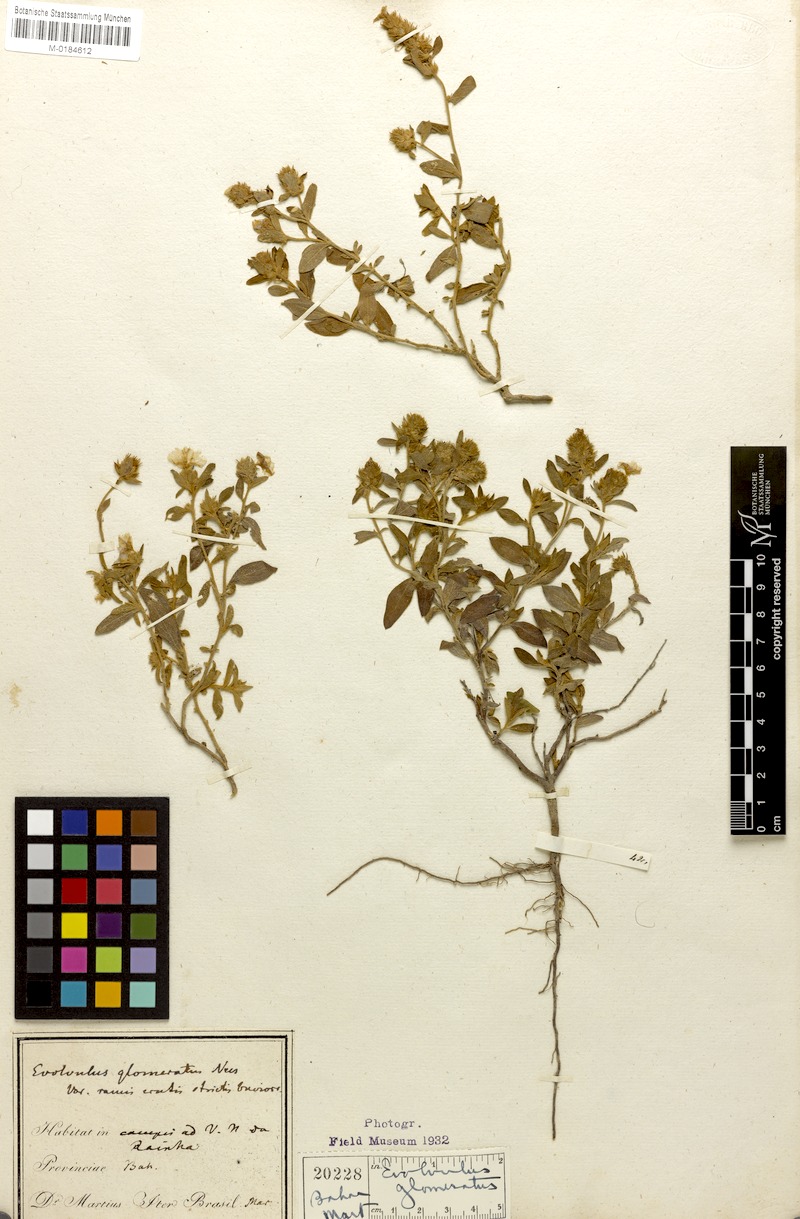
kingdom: Plantae
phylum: Tracheophyta
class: Magnoliopsida
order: Solanales
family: Convolvulaceae
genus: Evolvulus
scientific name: Evolvulus glomeratus
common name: Brazilian dwarf morning-glory
